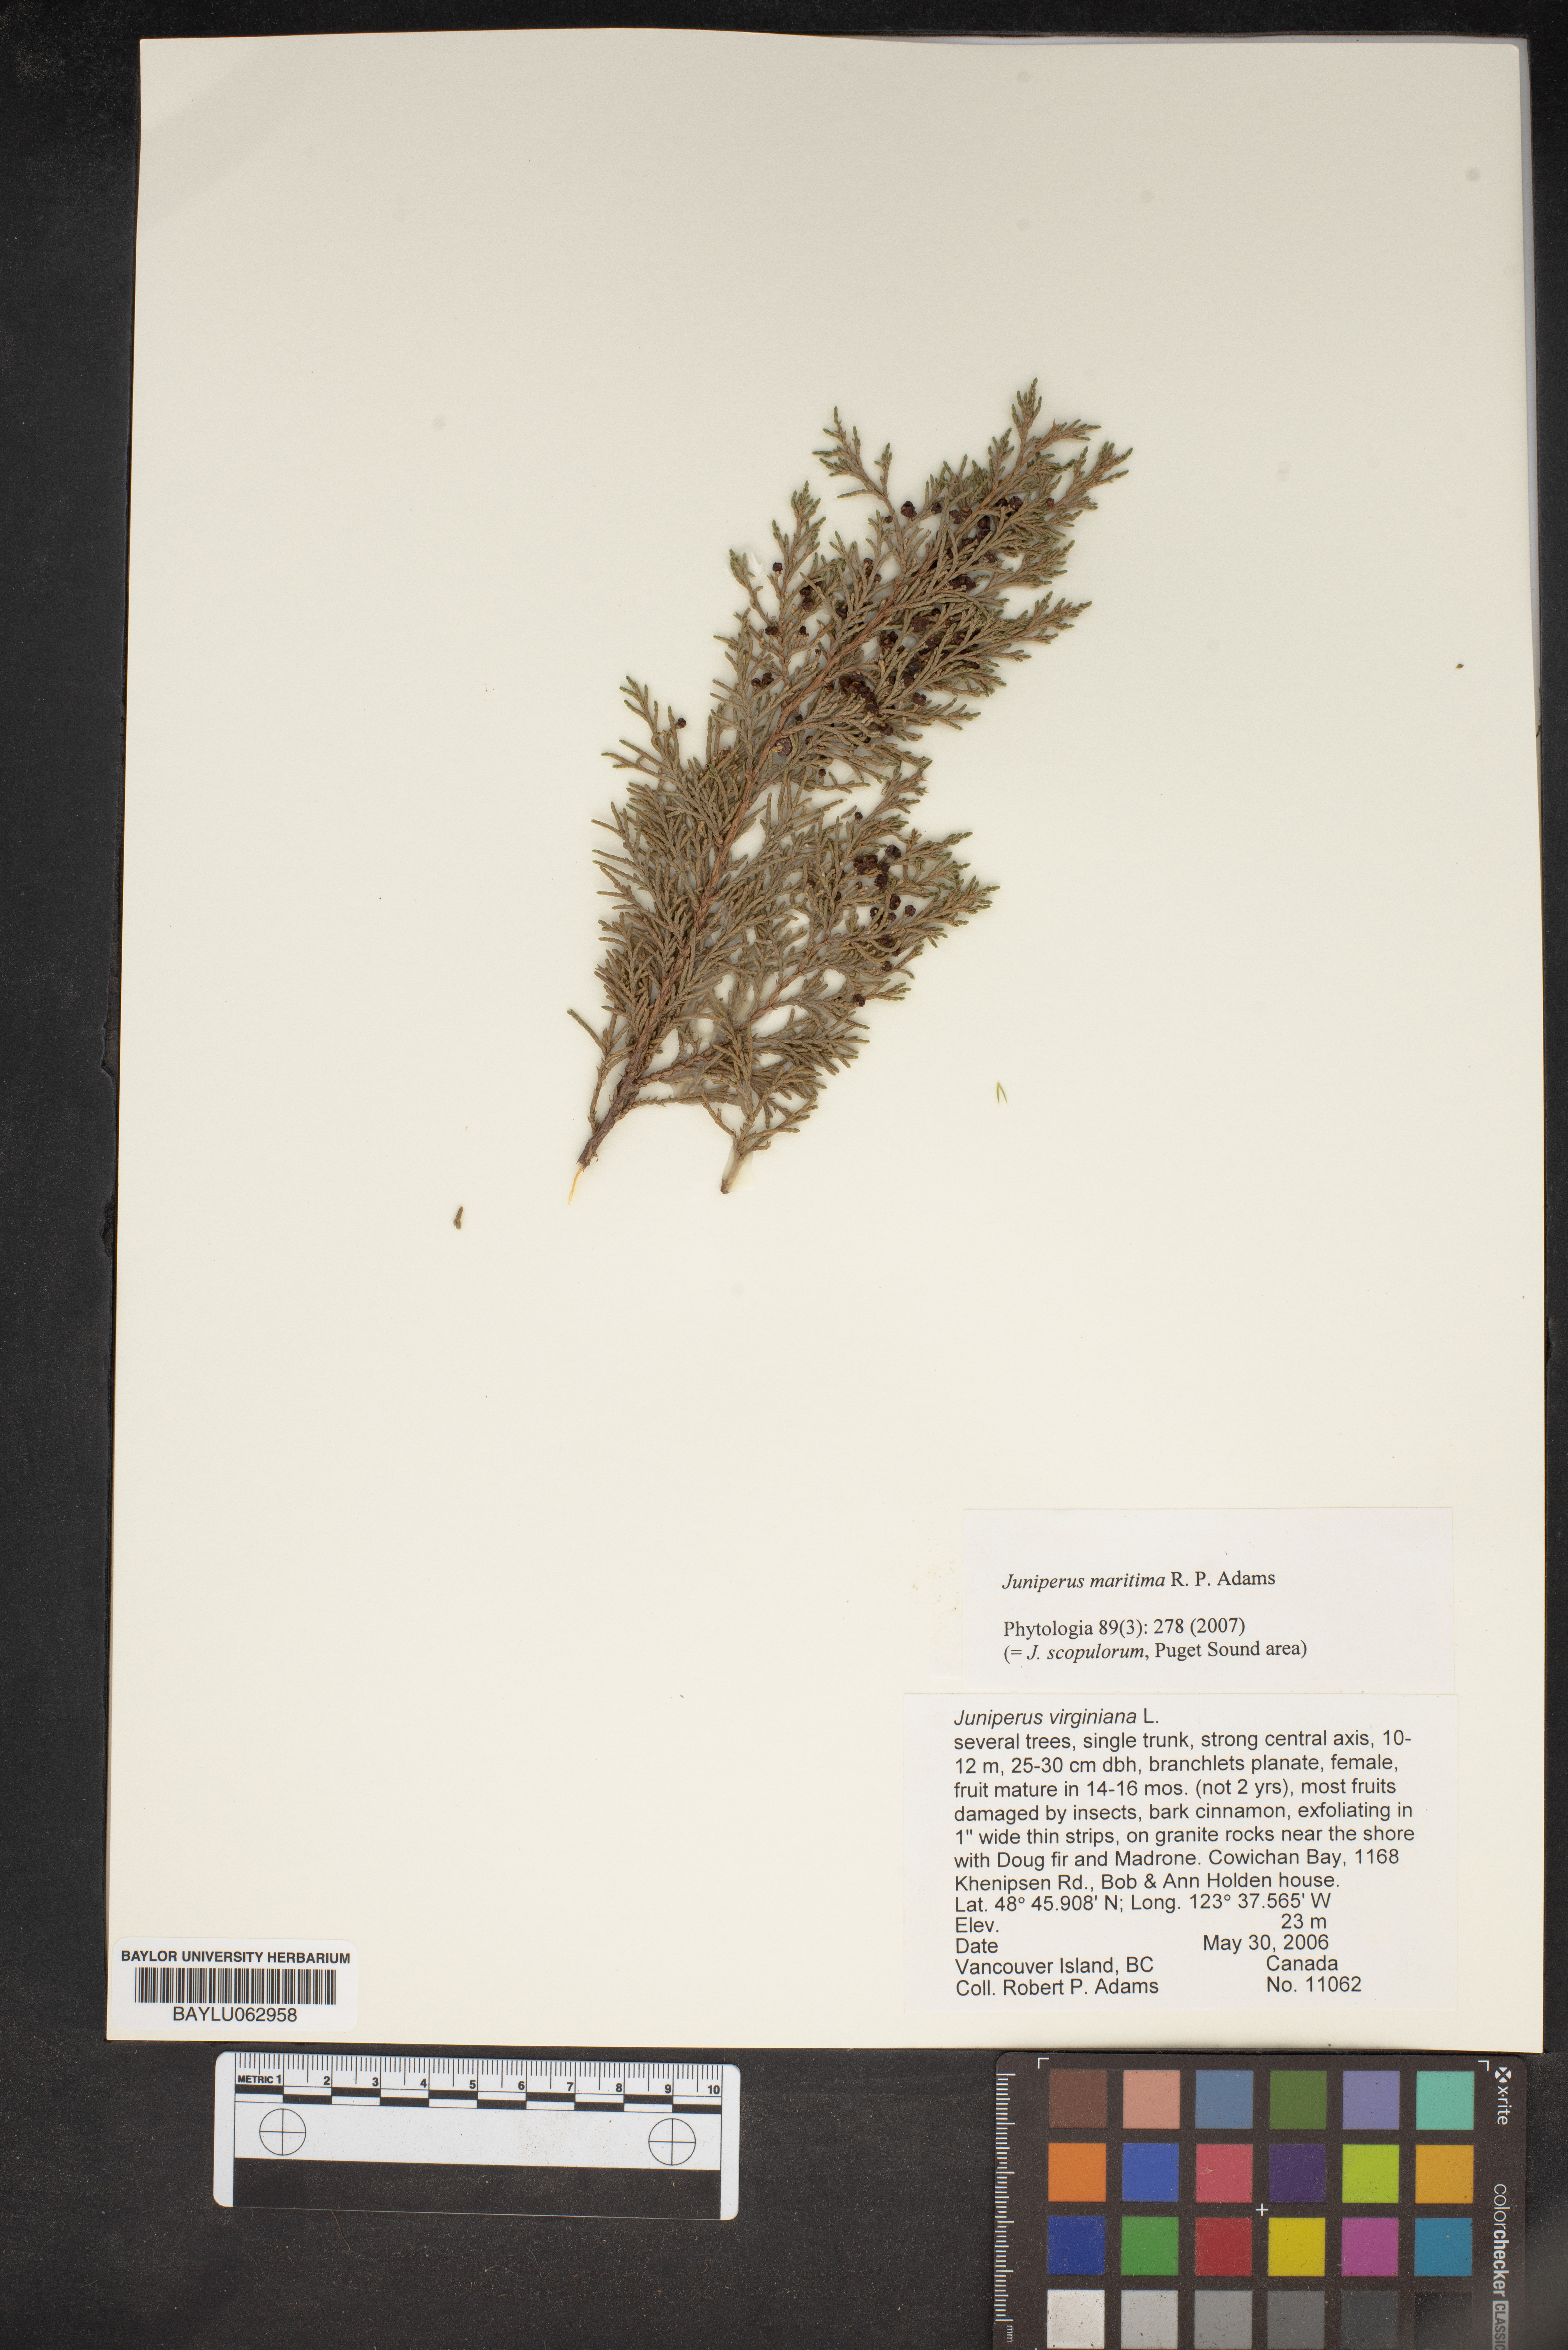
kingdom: Plantae
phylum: Tracheophyta
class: Pinopsida
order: Pinales
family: Cupressaceae
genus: Juniperus
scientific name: Juniperus scopulorum
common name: Rocky mountain juniper
